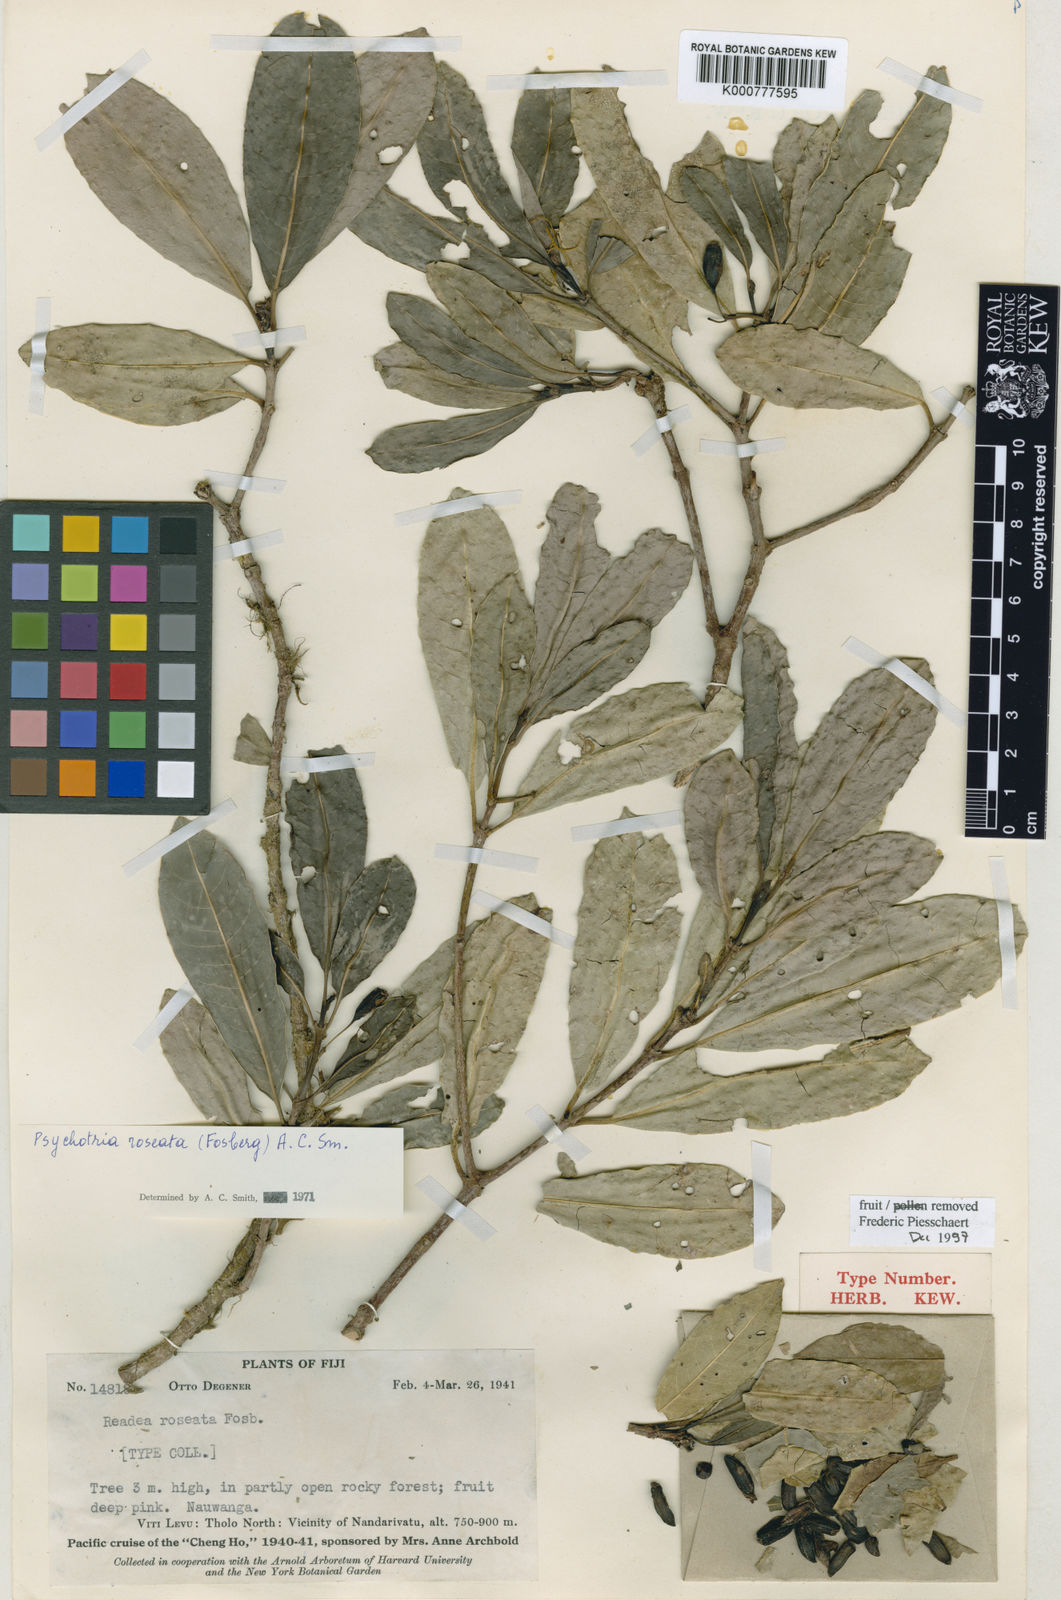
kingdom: Plantae
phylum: Tracheophyta
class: Magnoliopsida
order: Gentianales
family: Rubiaceae
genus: Psychotria
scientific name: Psychotria roseata
